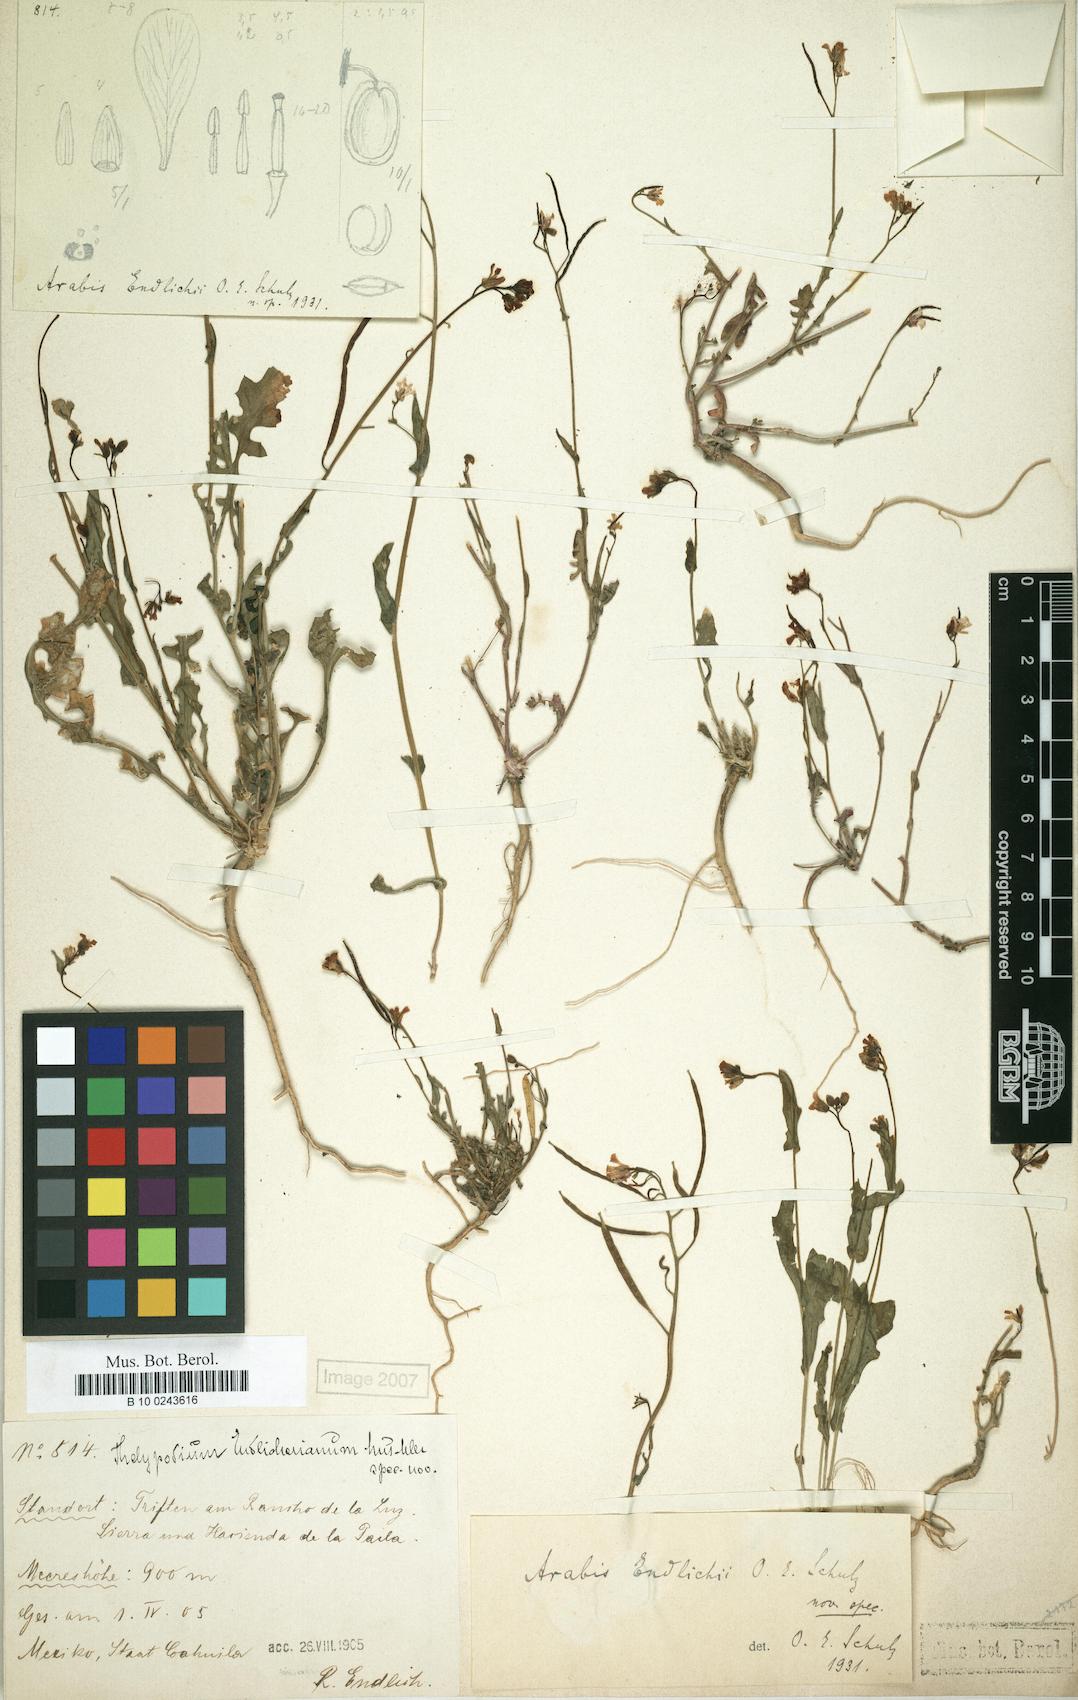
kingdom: Plantae
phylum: Tracheophyta
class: Magnoliopsida
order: Brassicales
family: Brassicaceae
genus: Phravenia
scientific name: Phravenia viereckii
